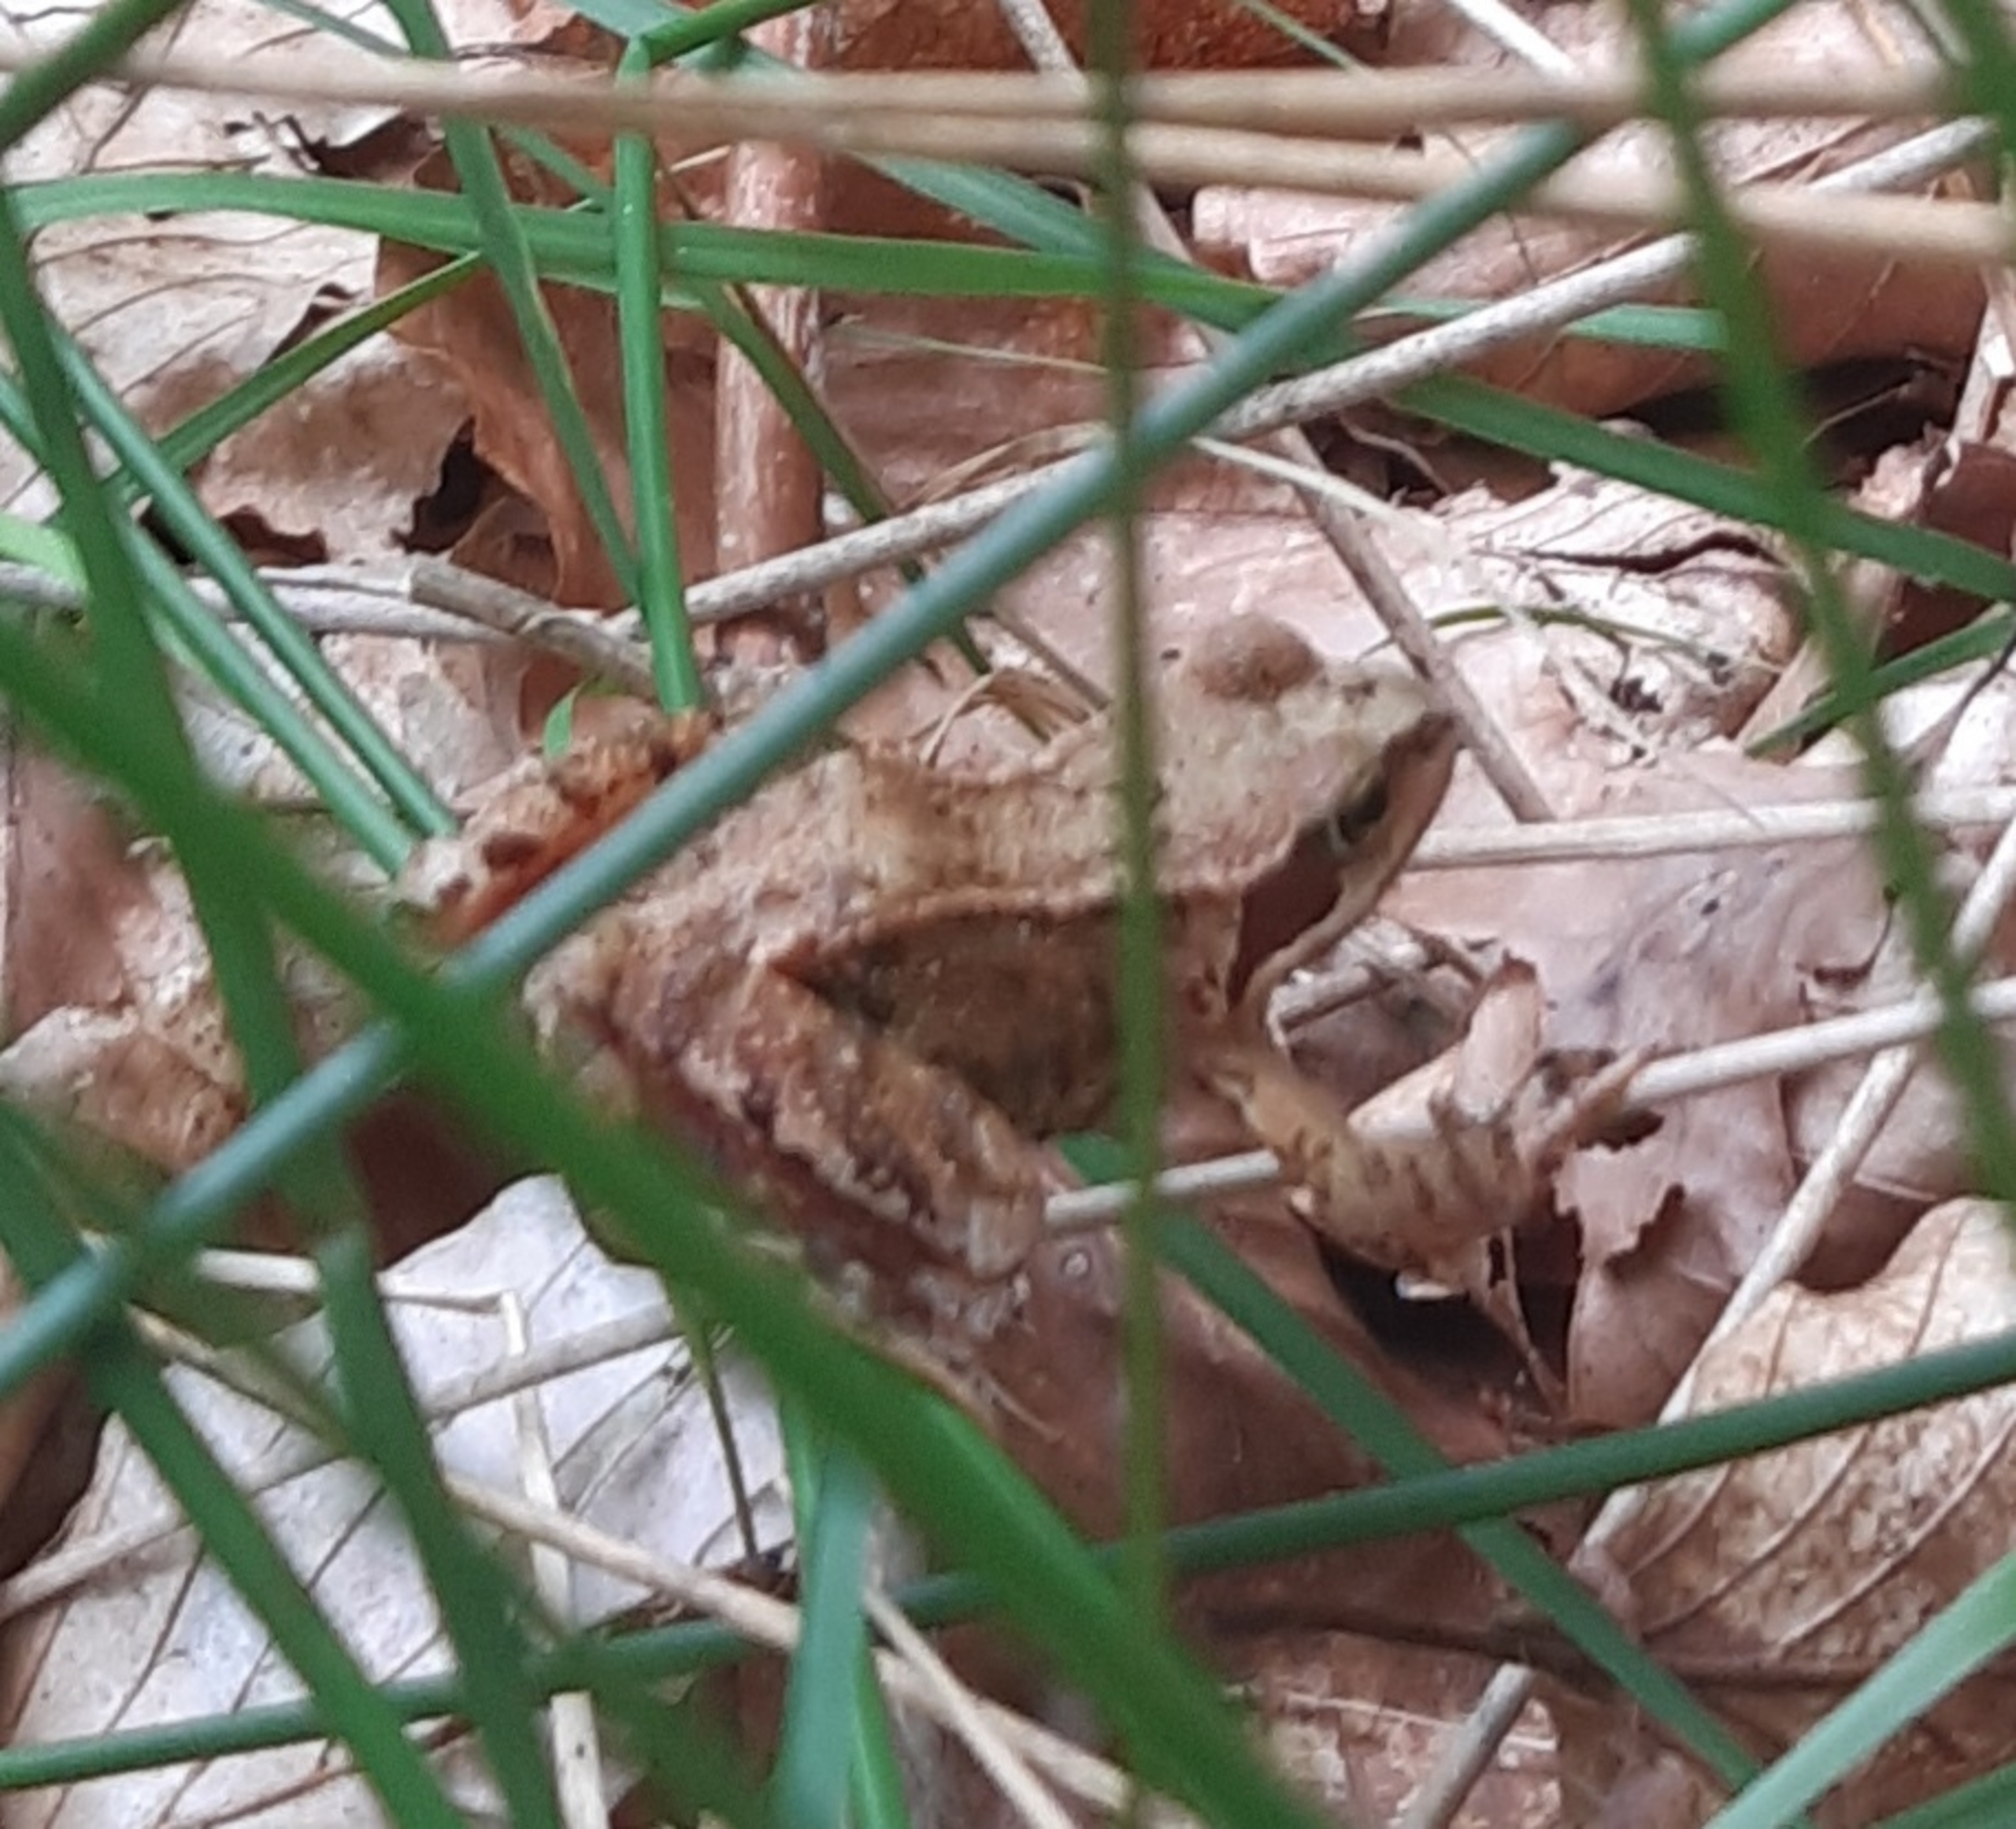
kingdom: Animalia
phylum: Chordata
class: Amphibia
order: Anura
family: Ranidae
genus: Rana
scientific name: Rana temporaria
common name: Butsnudet frø
